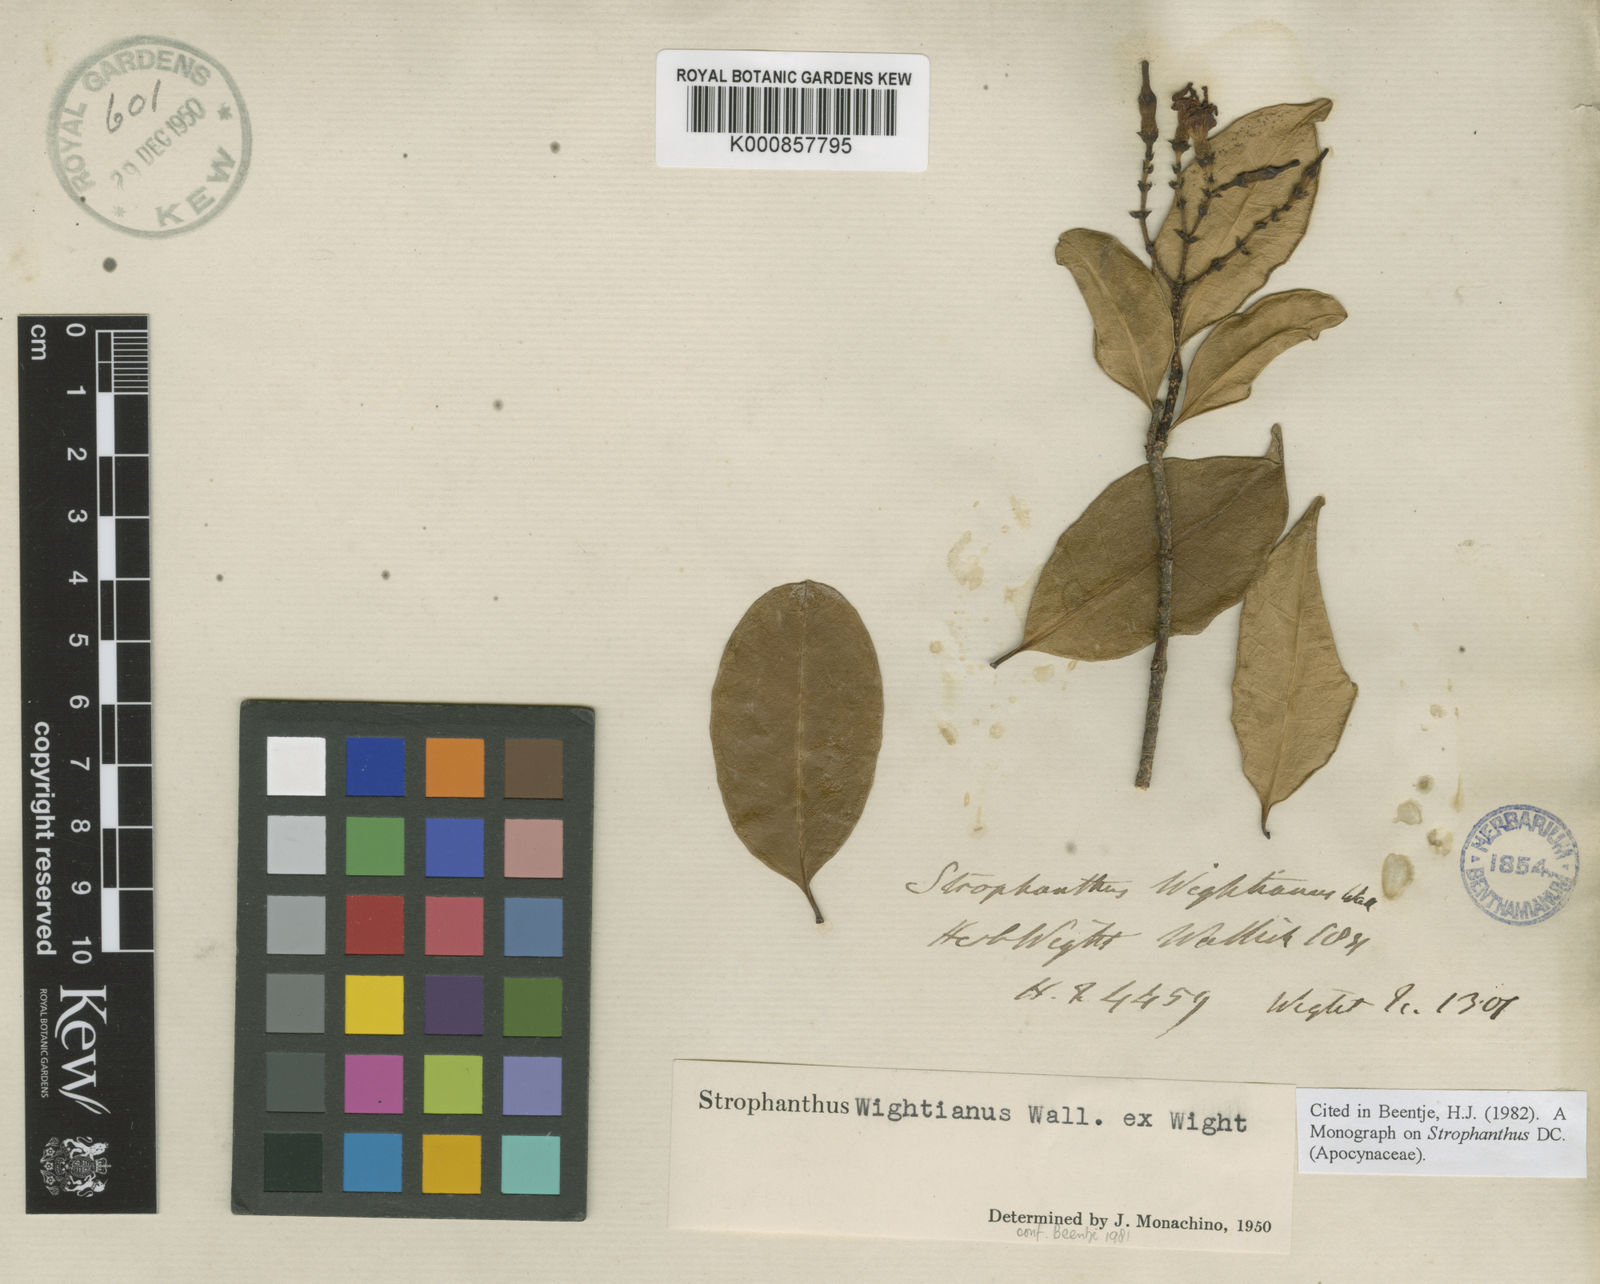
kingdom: Plantae
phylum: Tracheophyta
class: Magnoliopsida
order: Gentianales
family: Apocynaceae
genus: Strophanthus
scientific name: Strophanthus wightianus
